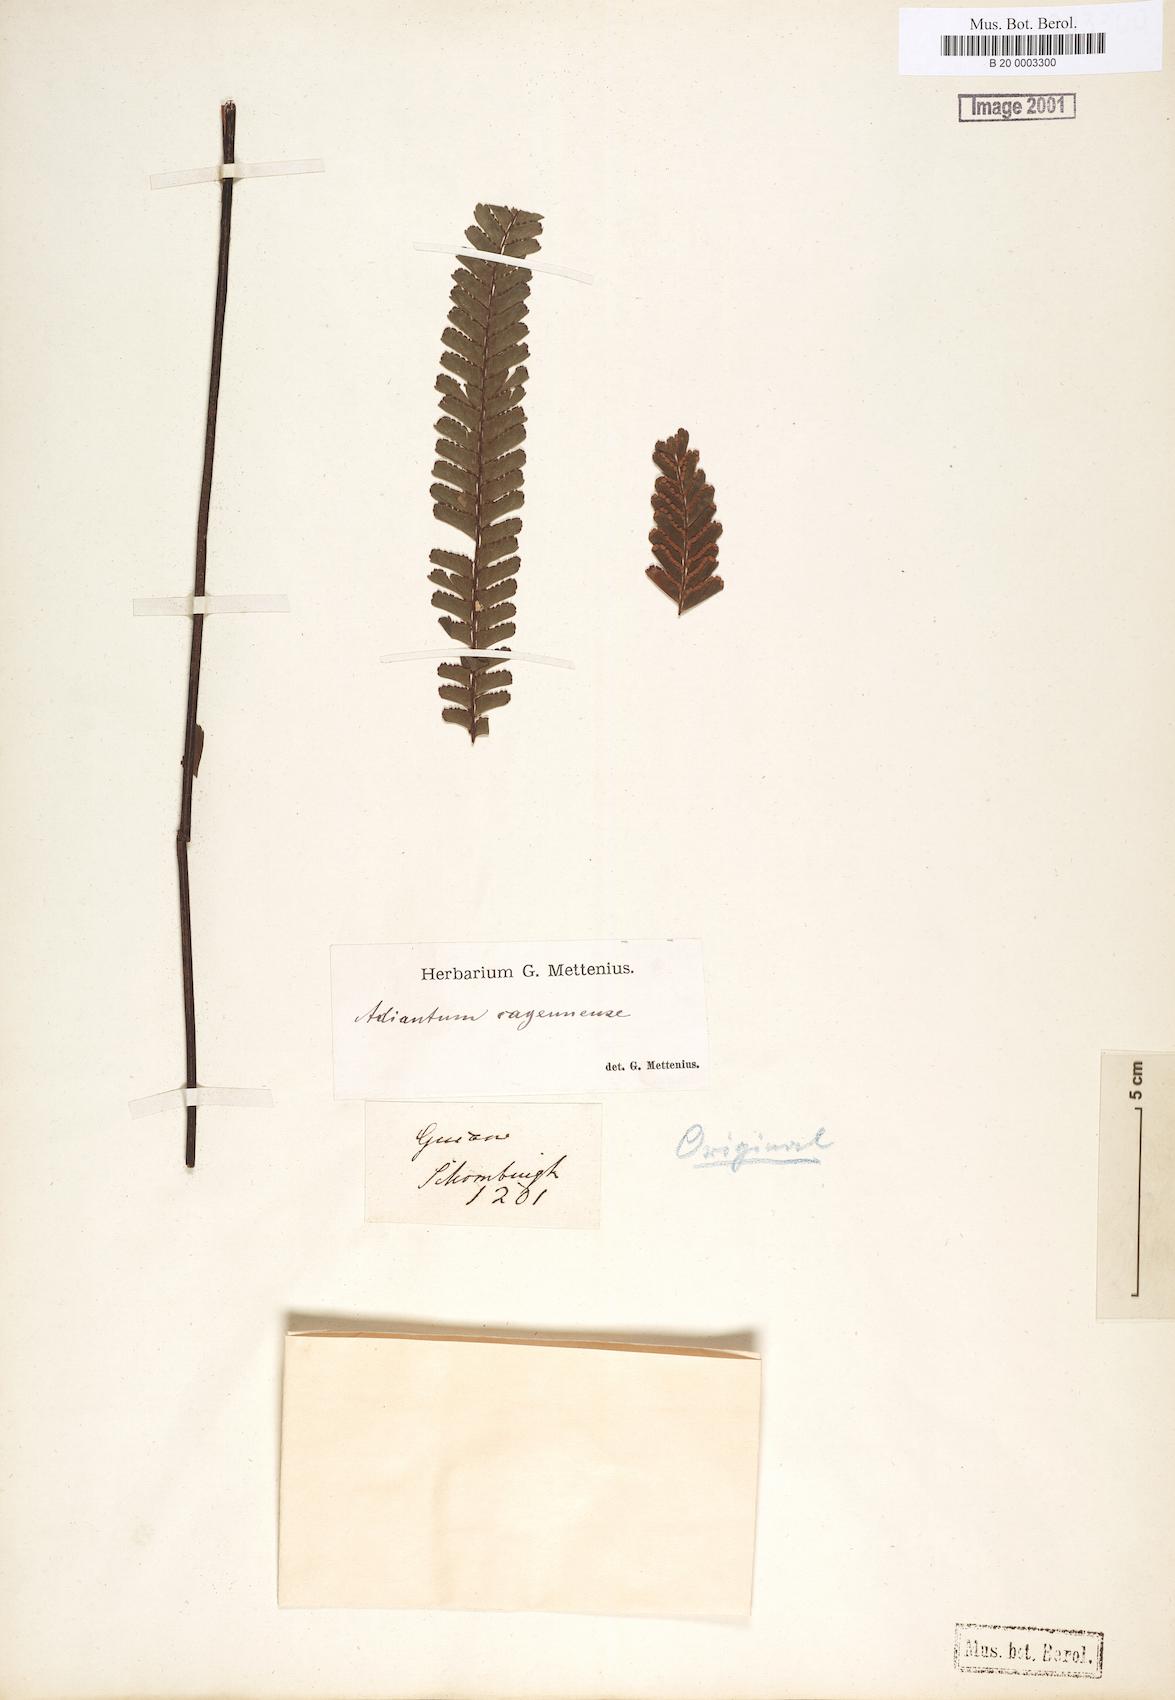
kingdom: Plantae
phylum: Tracheophyta
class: Polypodiopsida
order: Polypodiales
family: Pteridaceae
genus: Adiantum
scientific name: Adiantum cajennense
